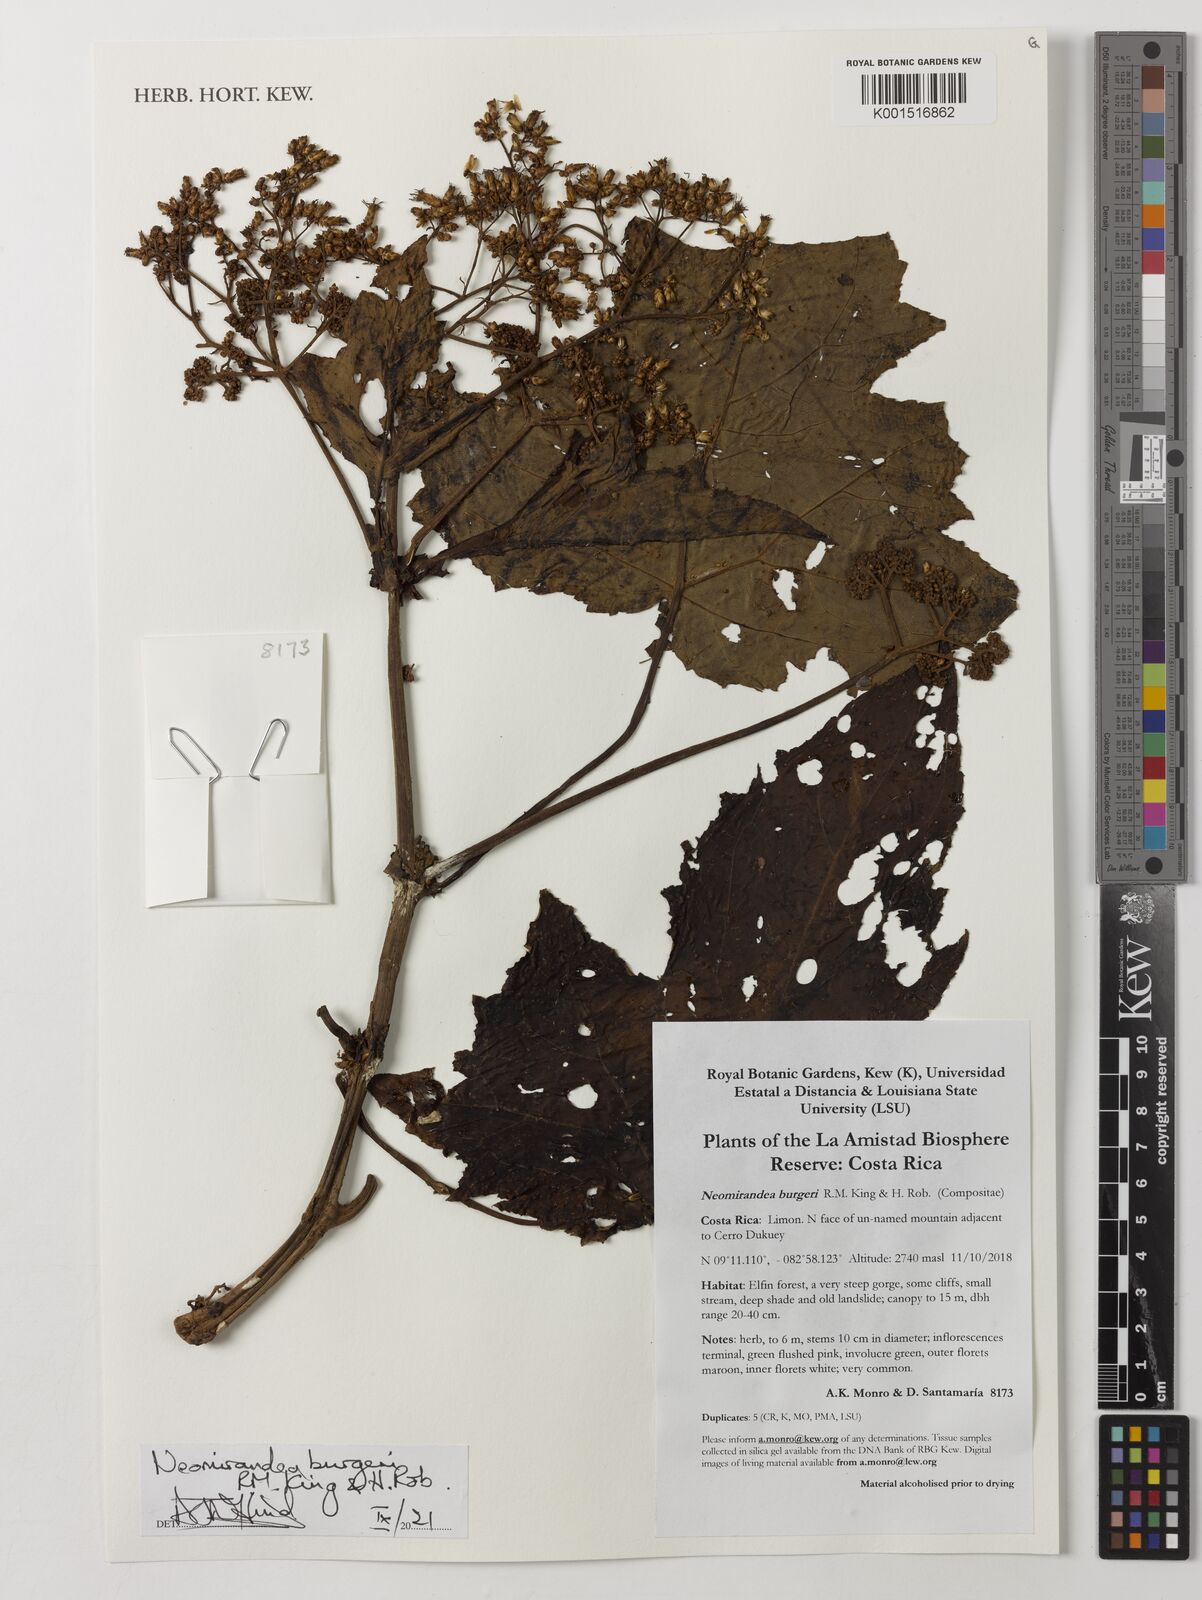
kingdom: Plantae
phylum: Tracheophyta
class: Magnoliopsida
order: Asterales
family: Asteraceae
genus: Neomirandea
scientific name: Neomirandea burgeri
